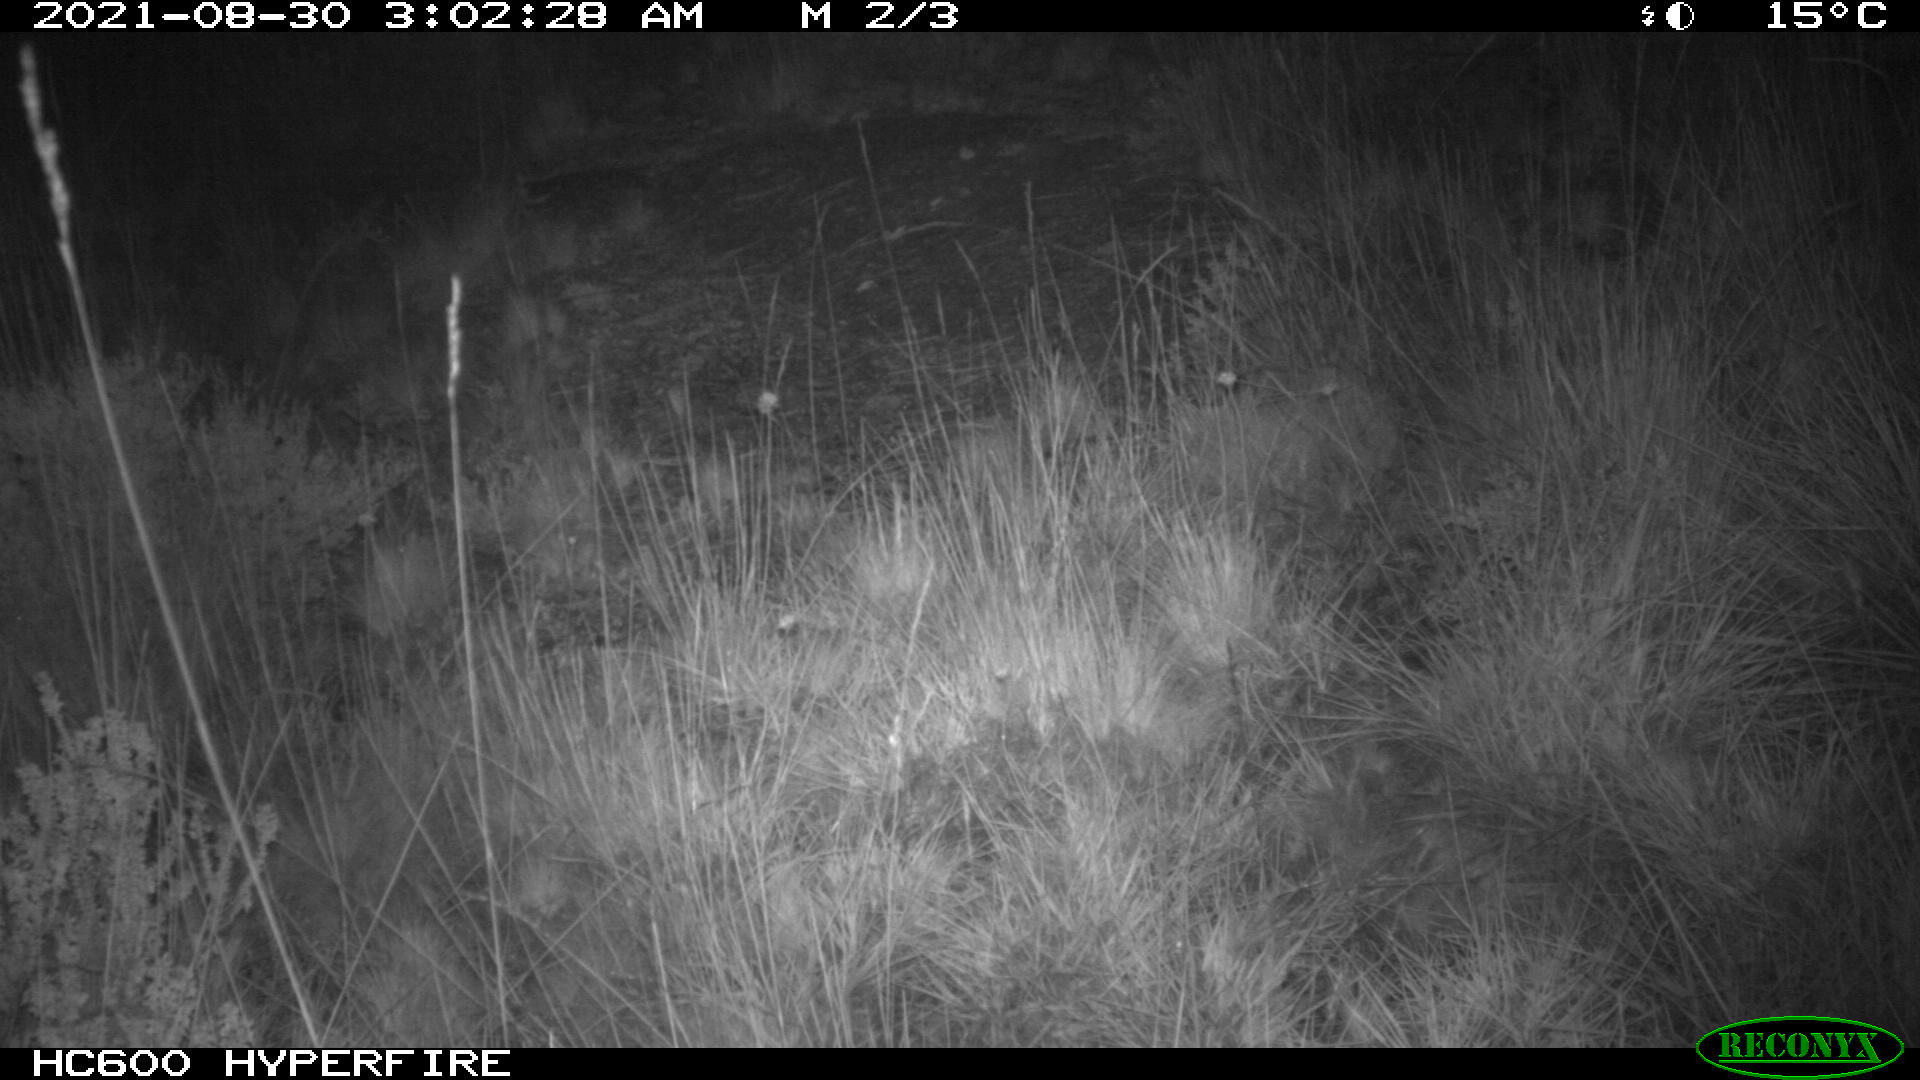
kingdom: Animalia
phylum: Chordata
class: Mammalia
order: Artiodactyla
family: Suidae
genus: Sus
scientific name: Sus scrofa
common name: Wild boar
